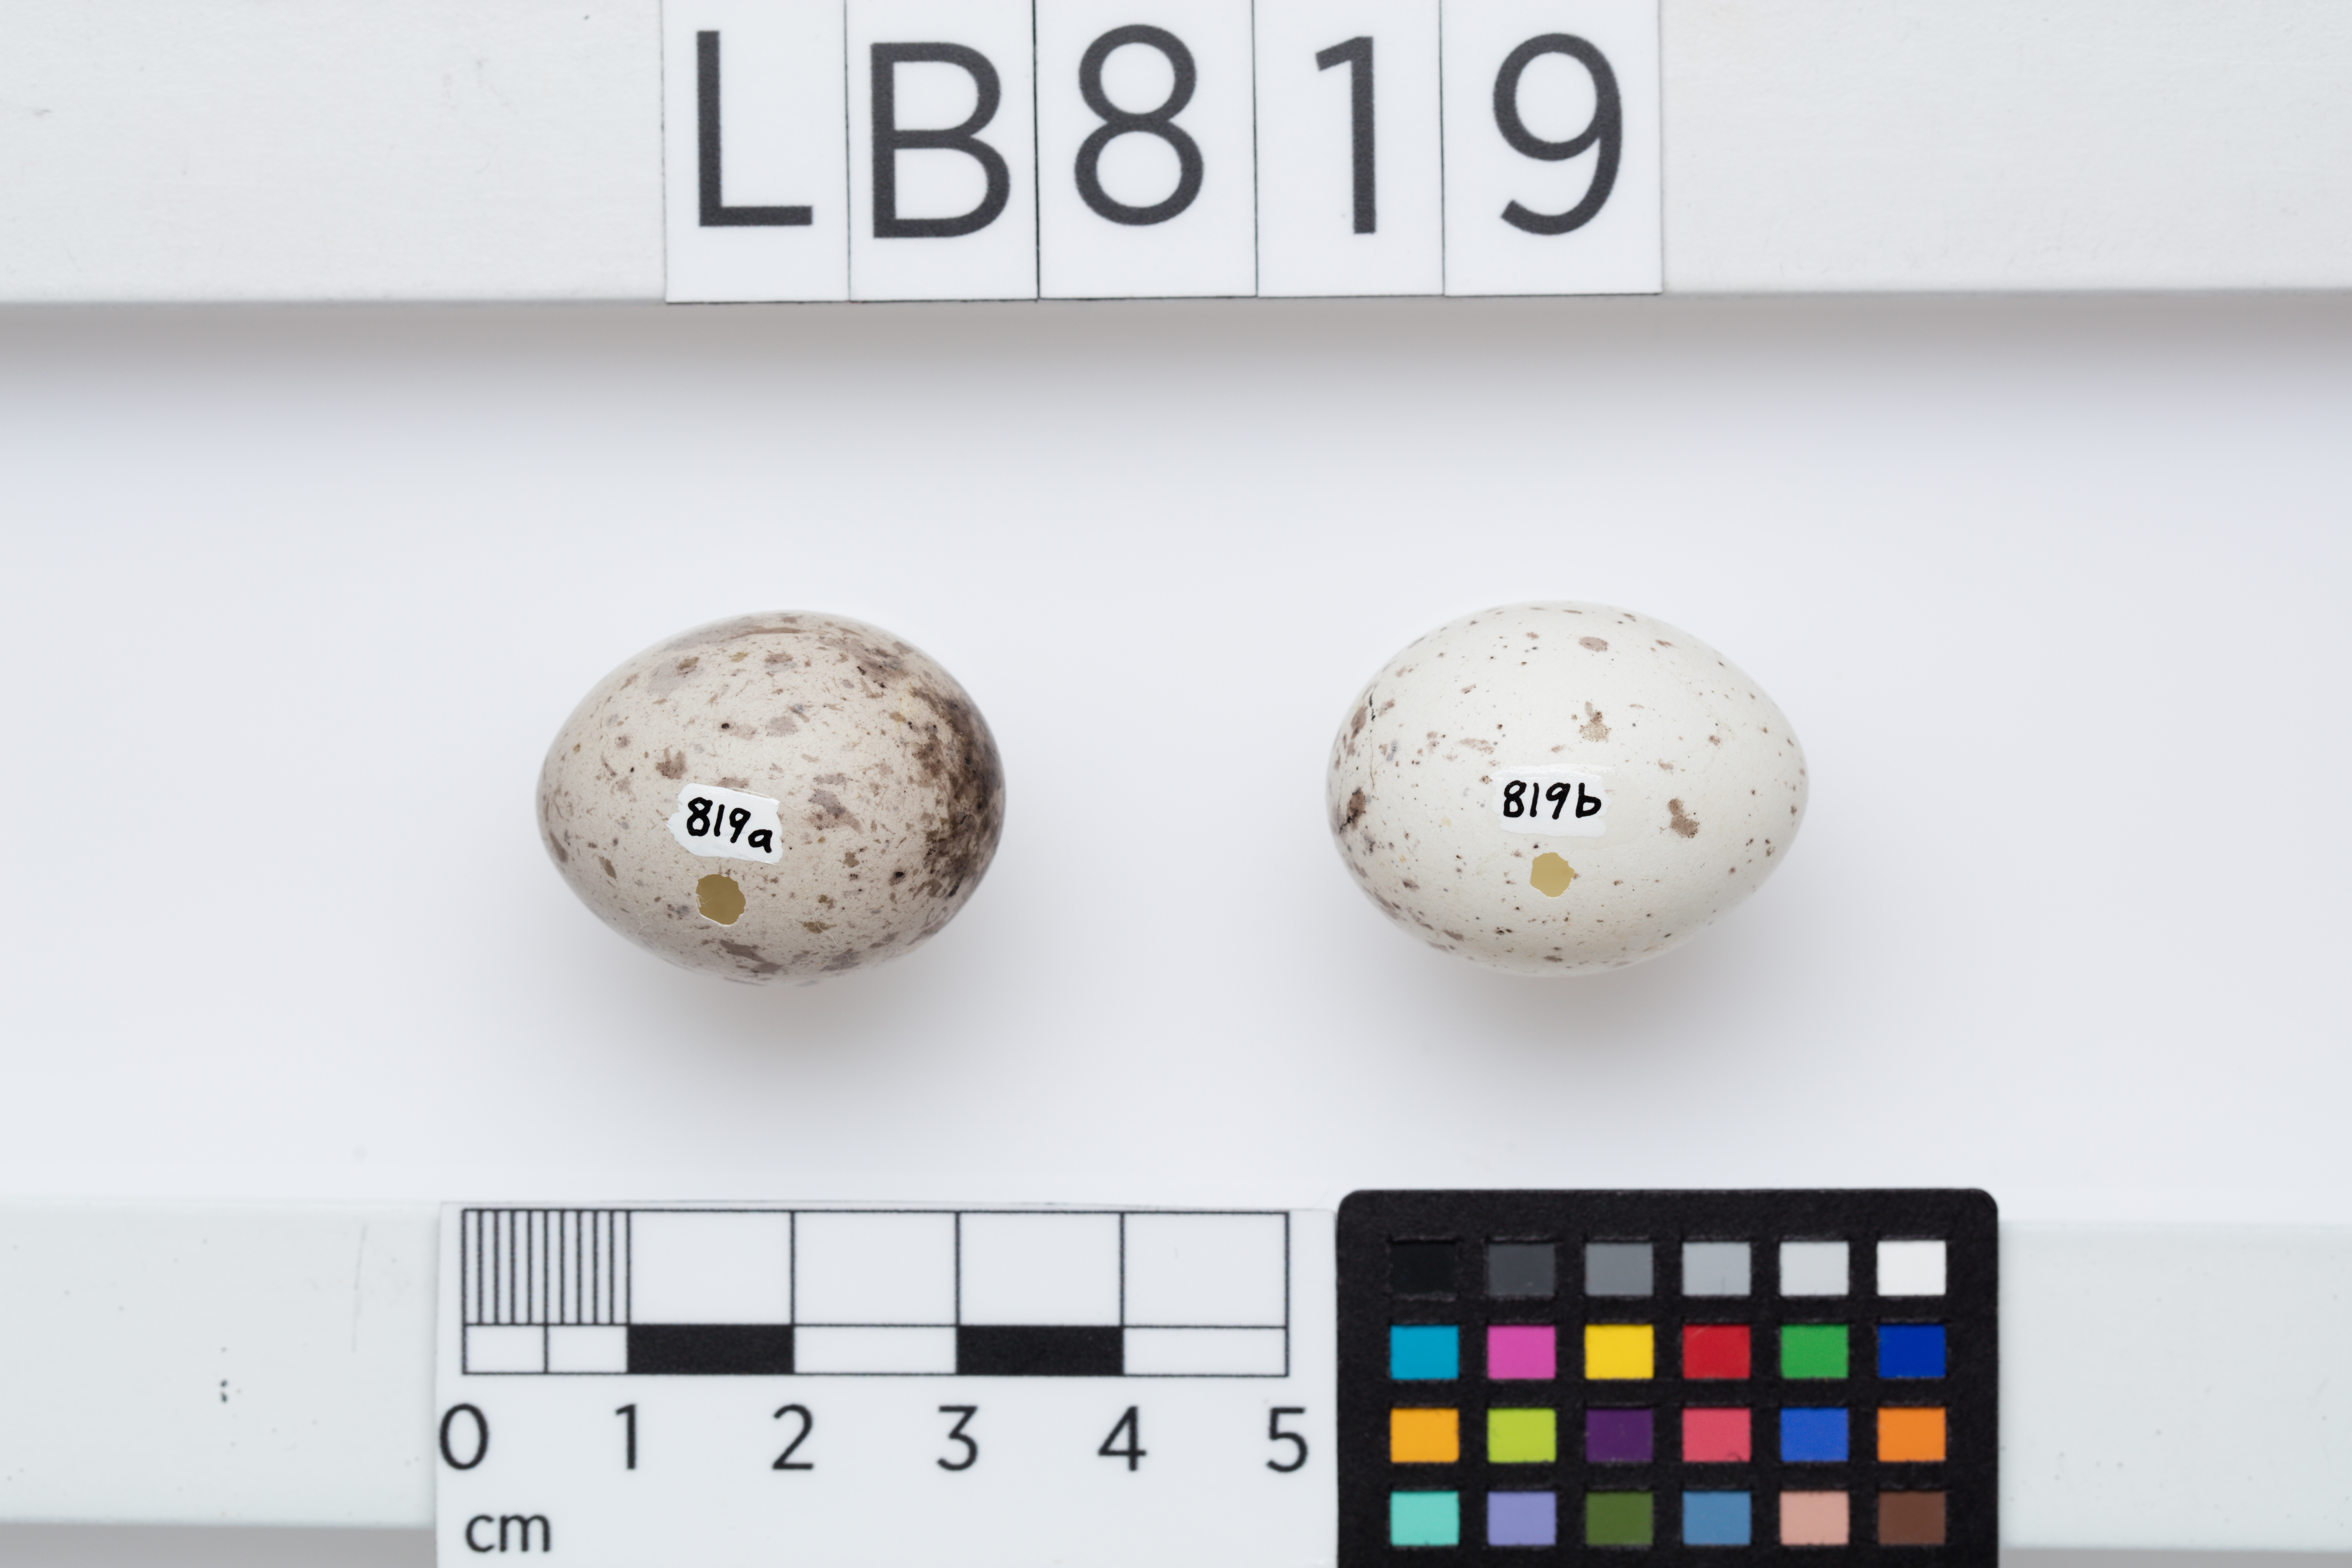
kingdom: Animalia
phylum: Chordata
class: Aves
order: Passeriformes
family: Callaeatidae
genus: Philesturnus
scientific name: Philesturnus carunculatus
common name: South island saddleback
